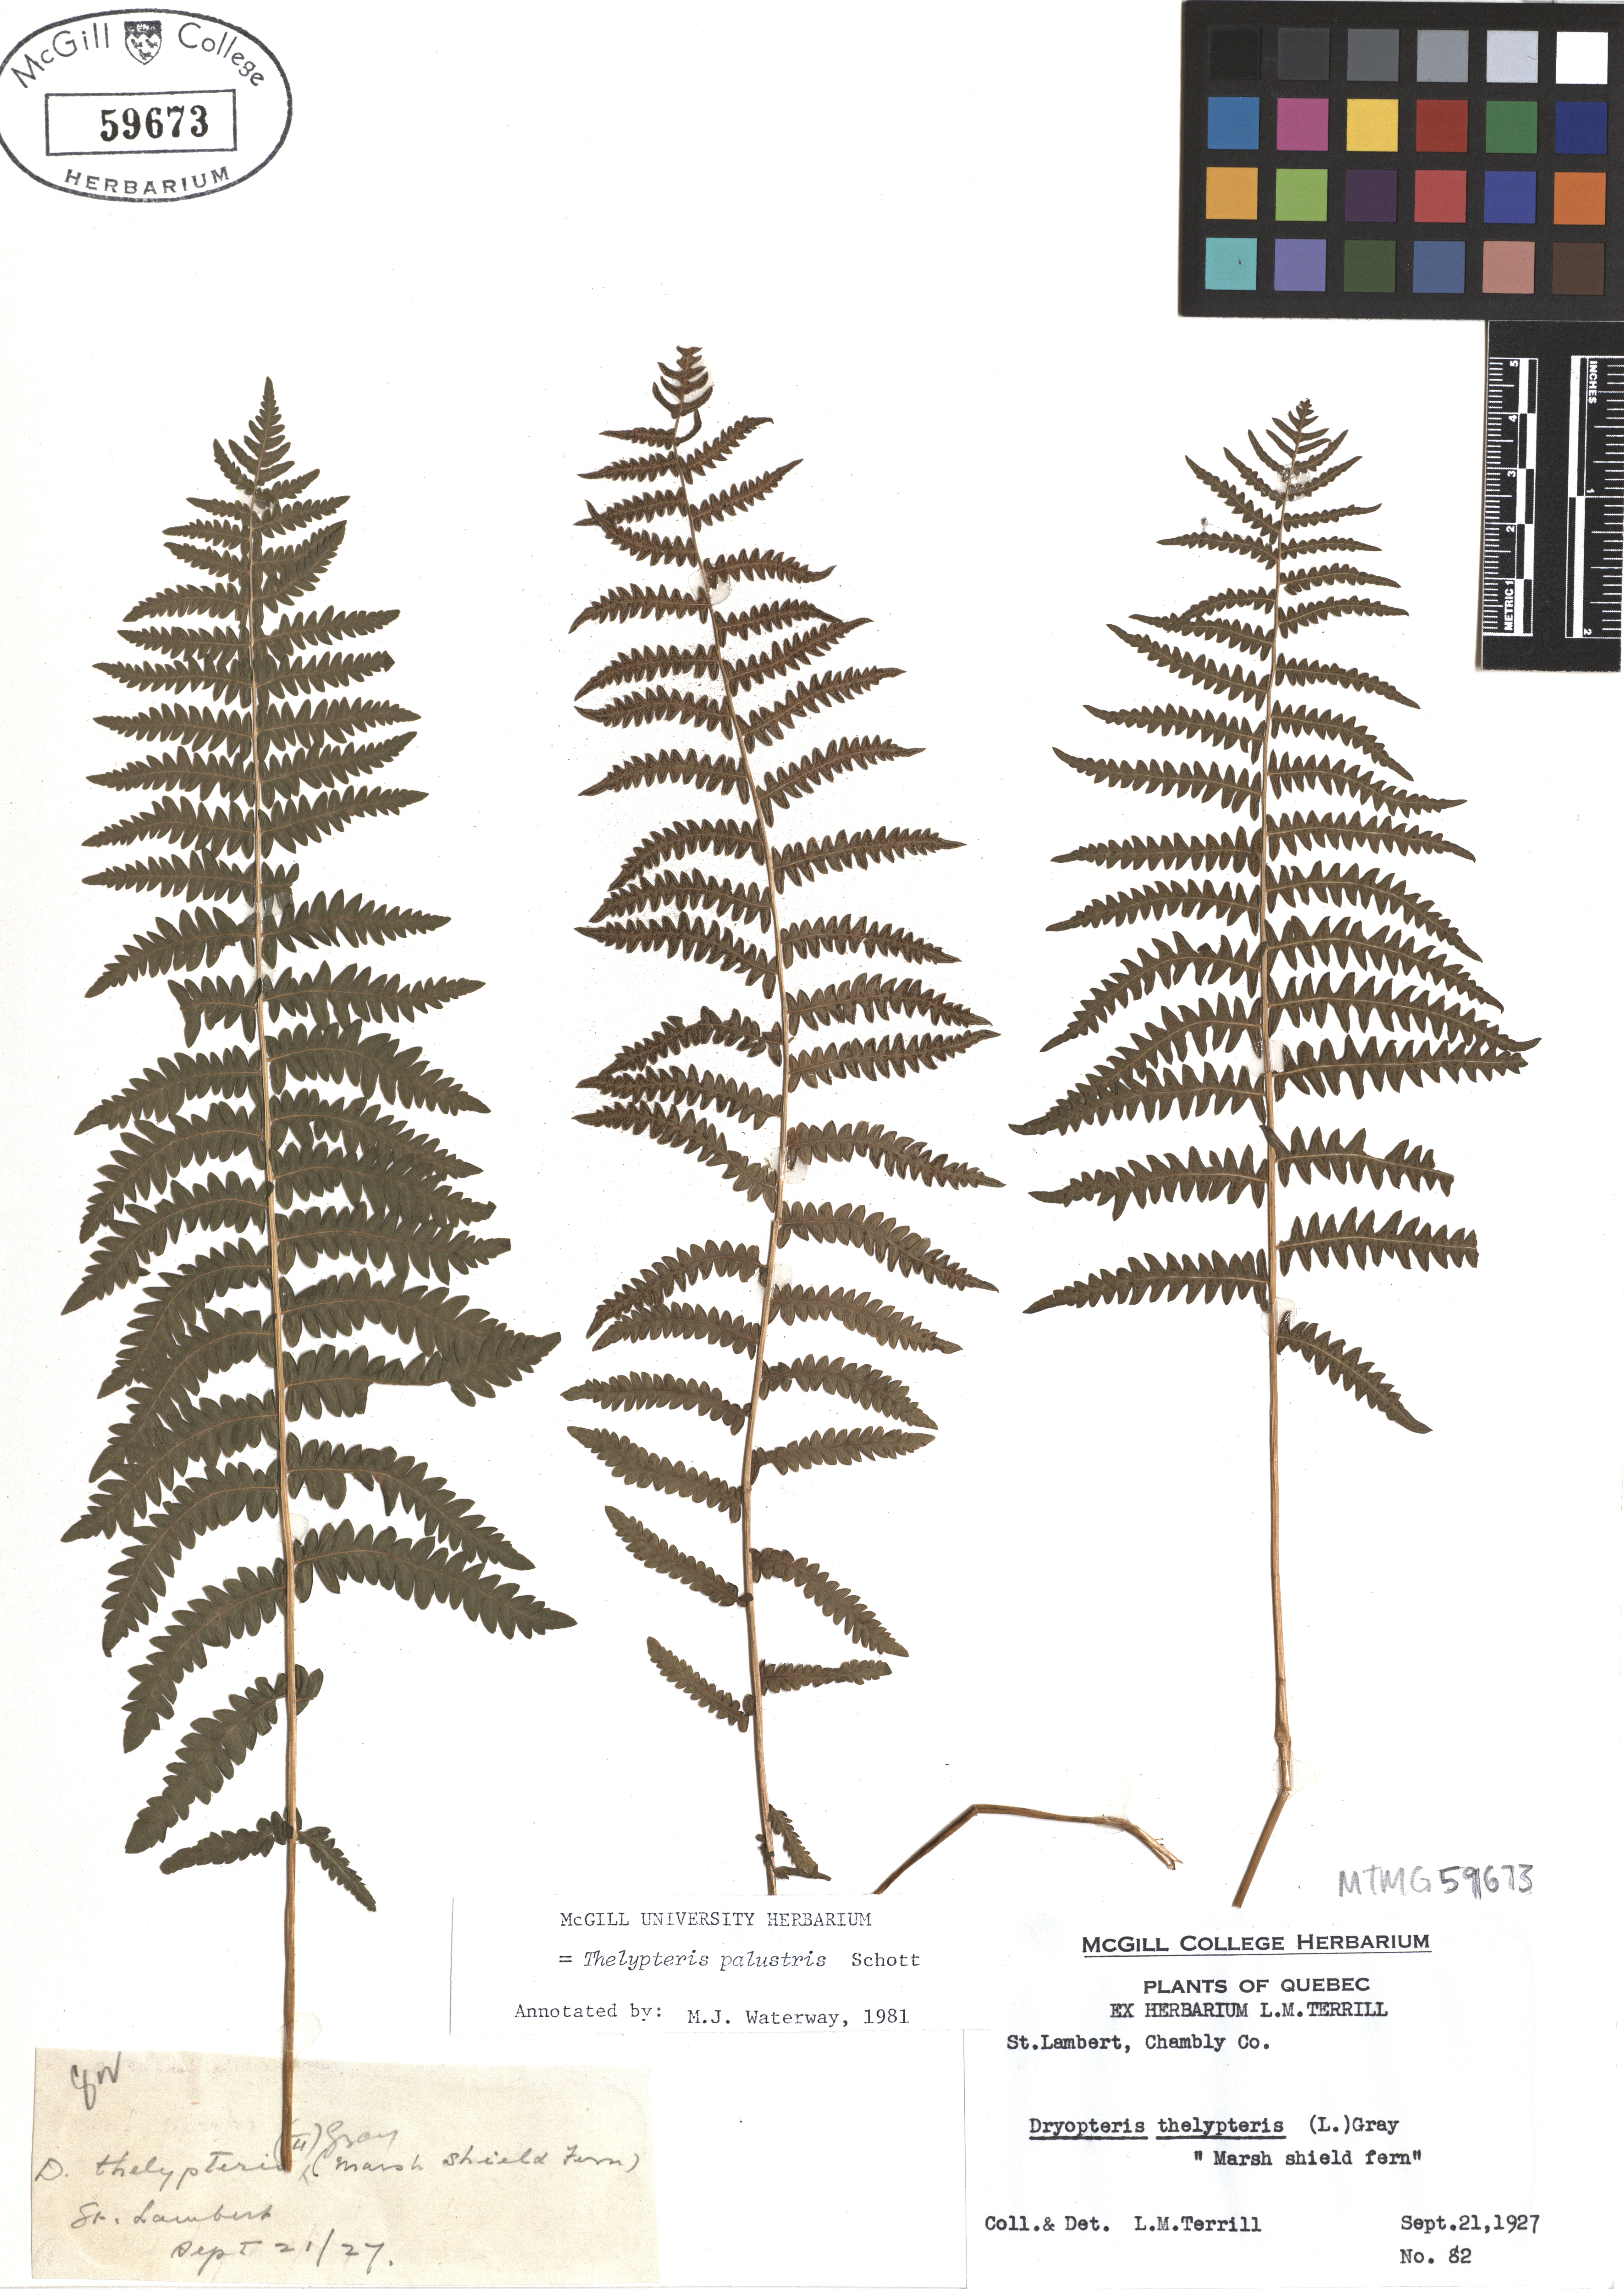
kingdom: Plantae
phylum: Tracheophyta
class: Polypodiopsida
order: Polypodiales
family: Thelypteridaceae
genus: Thelypteris
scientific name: Thelypteris palustris
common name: Marsh fern
